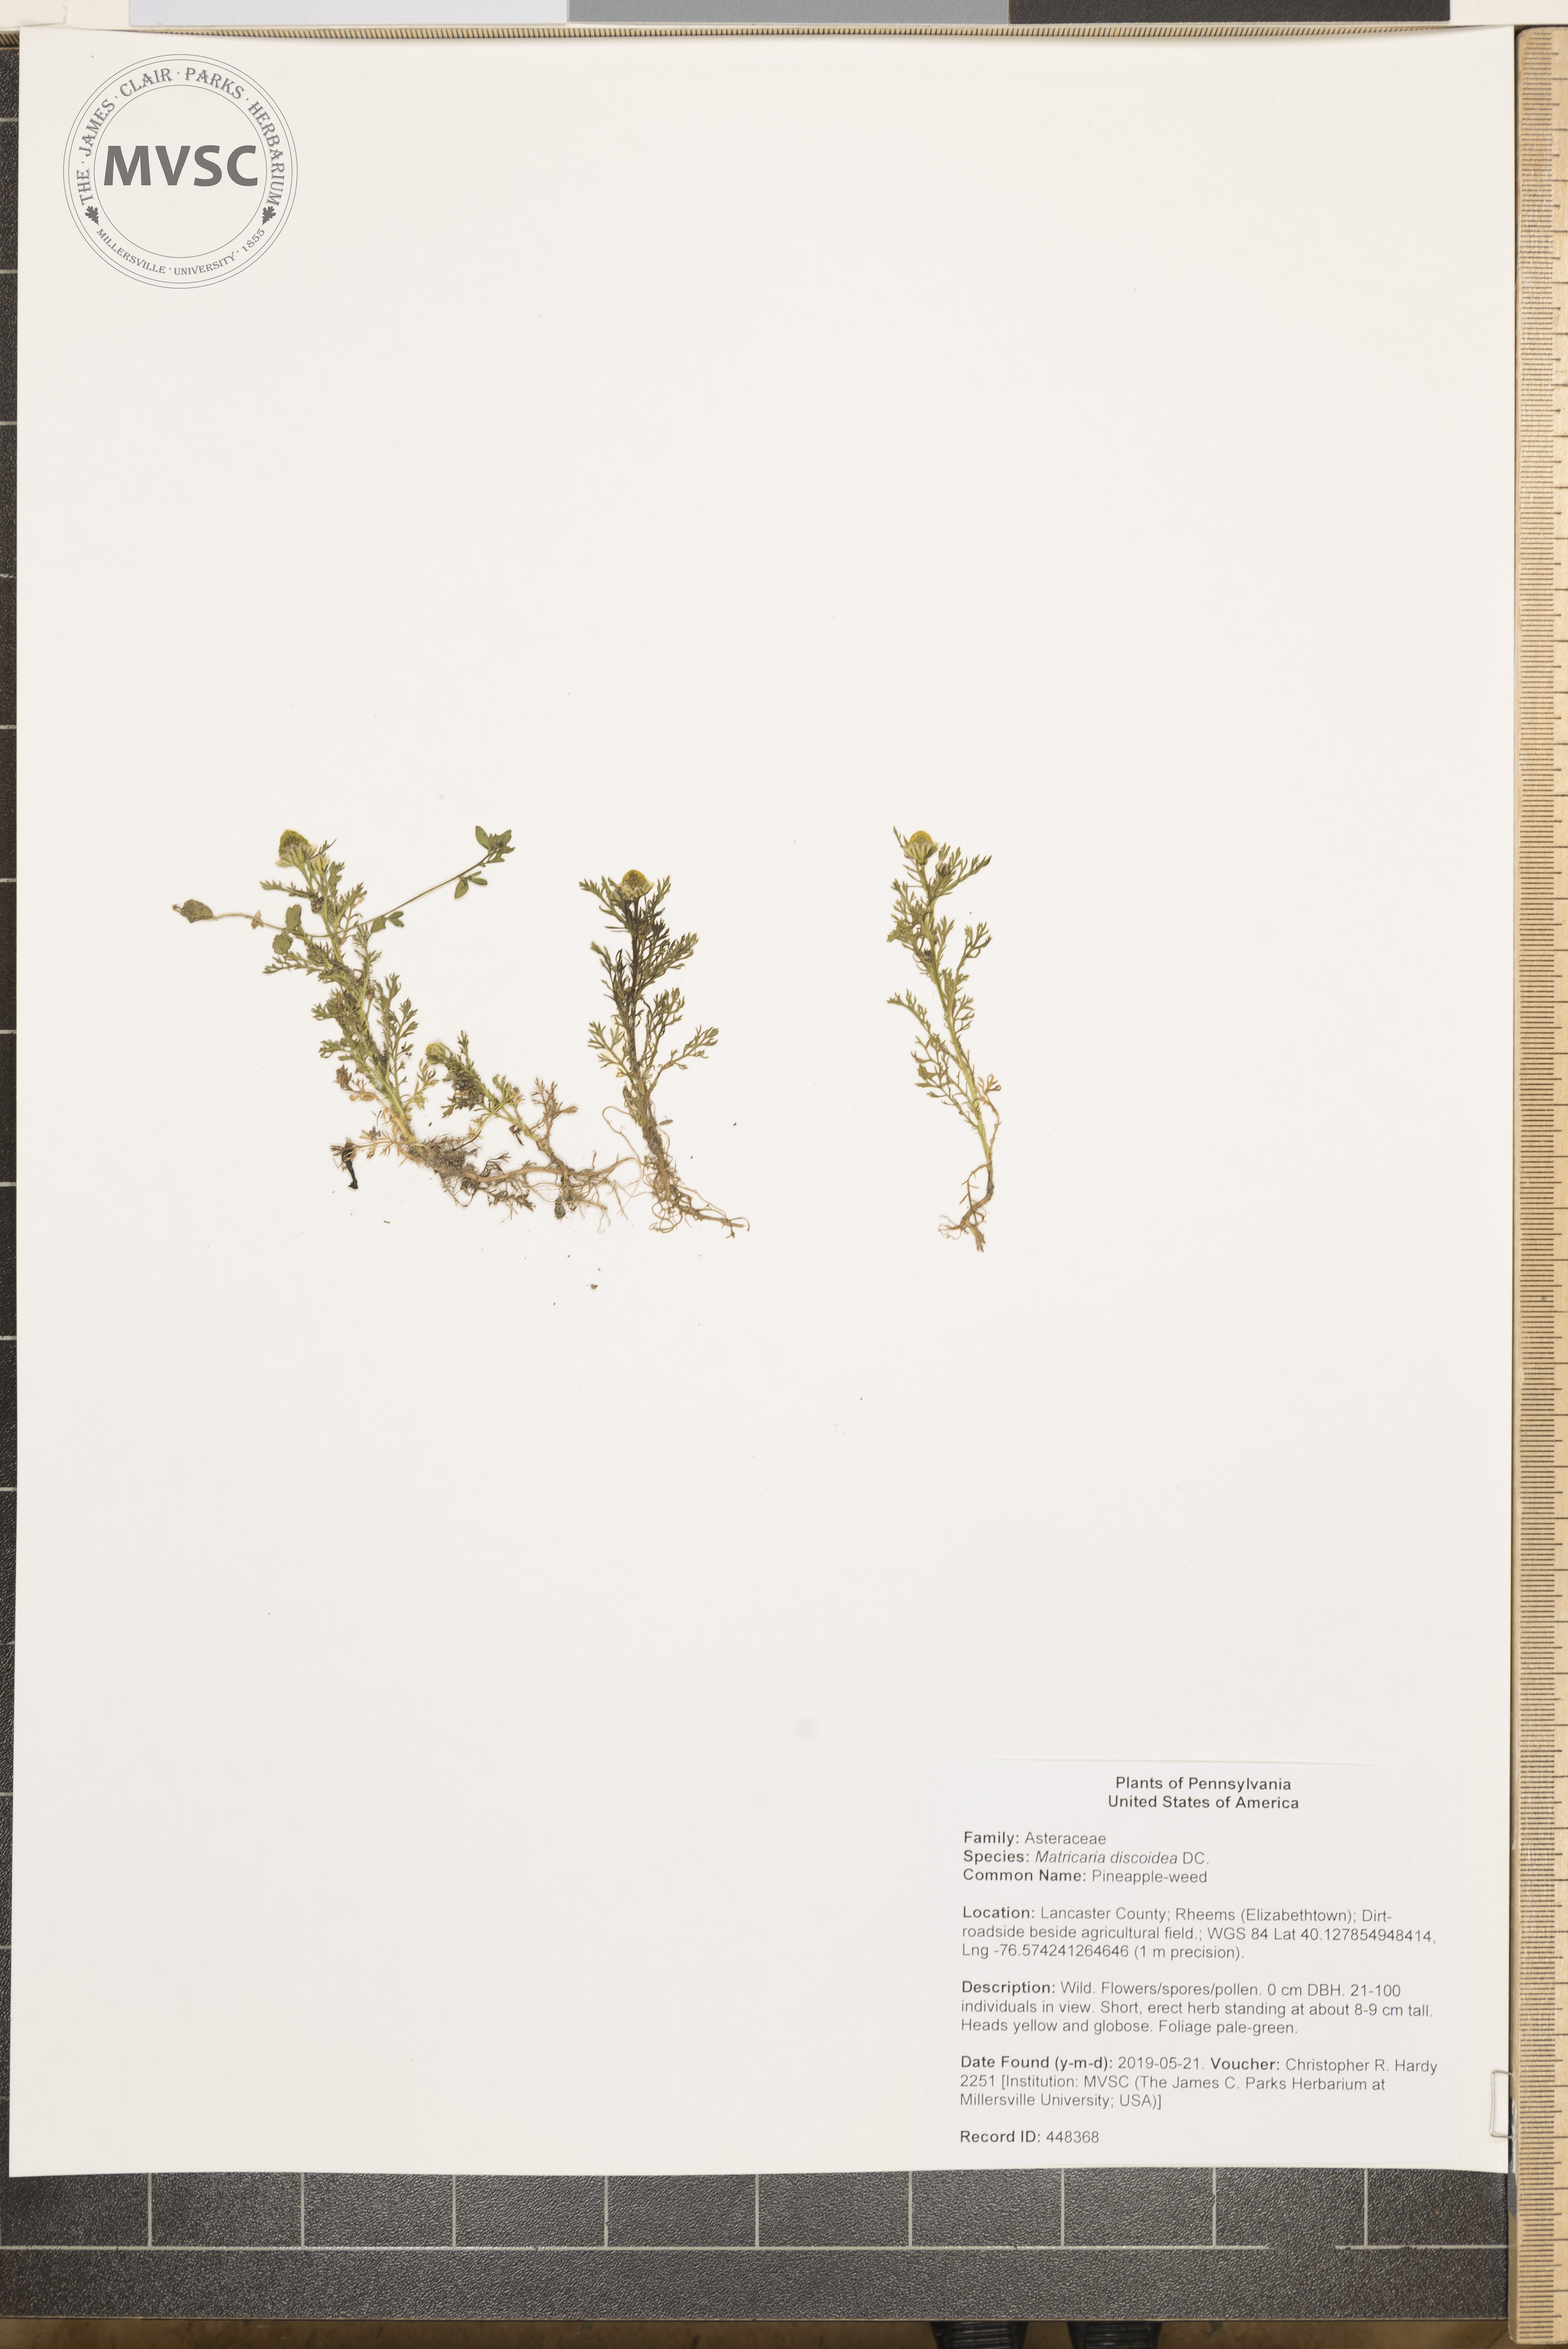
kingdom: Plantae
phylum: Tracheophyta
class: Magnoliopsida
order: Asterales
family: Asteraceae
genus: Matricaria
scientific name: Matricaria discoidea
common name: Pineapple-weed
